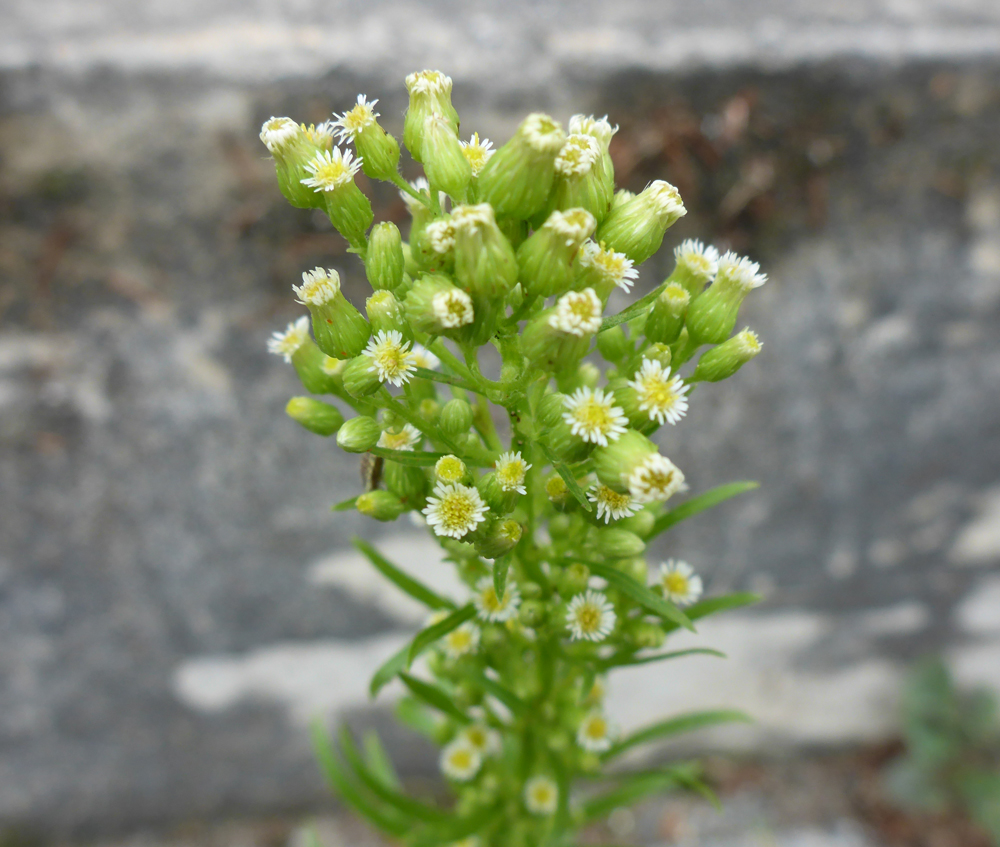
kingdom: Plantae
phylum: Tracheophyta
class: Magnoliopsida
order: Asterales
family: Asteraceae
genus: Erigeron
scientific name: Erigeron canadensis
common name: Canadian fleabane
